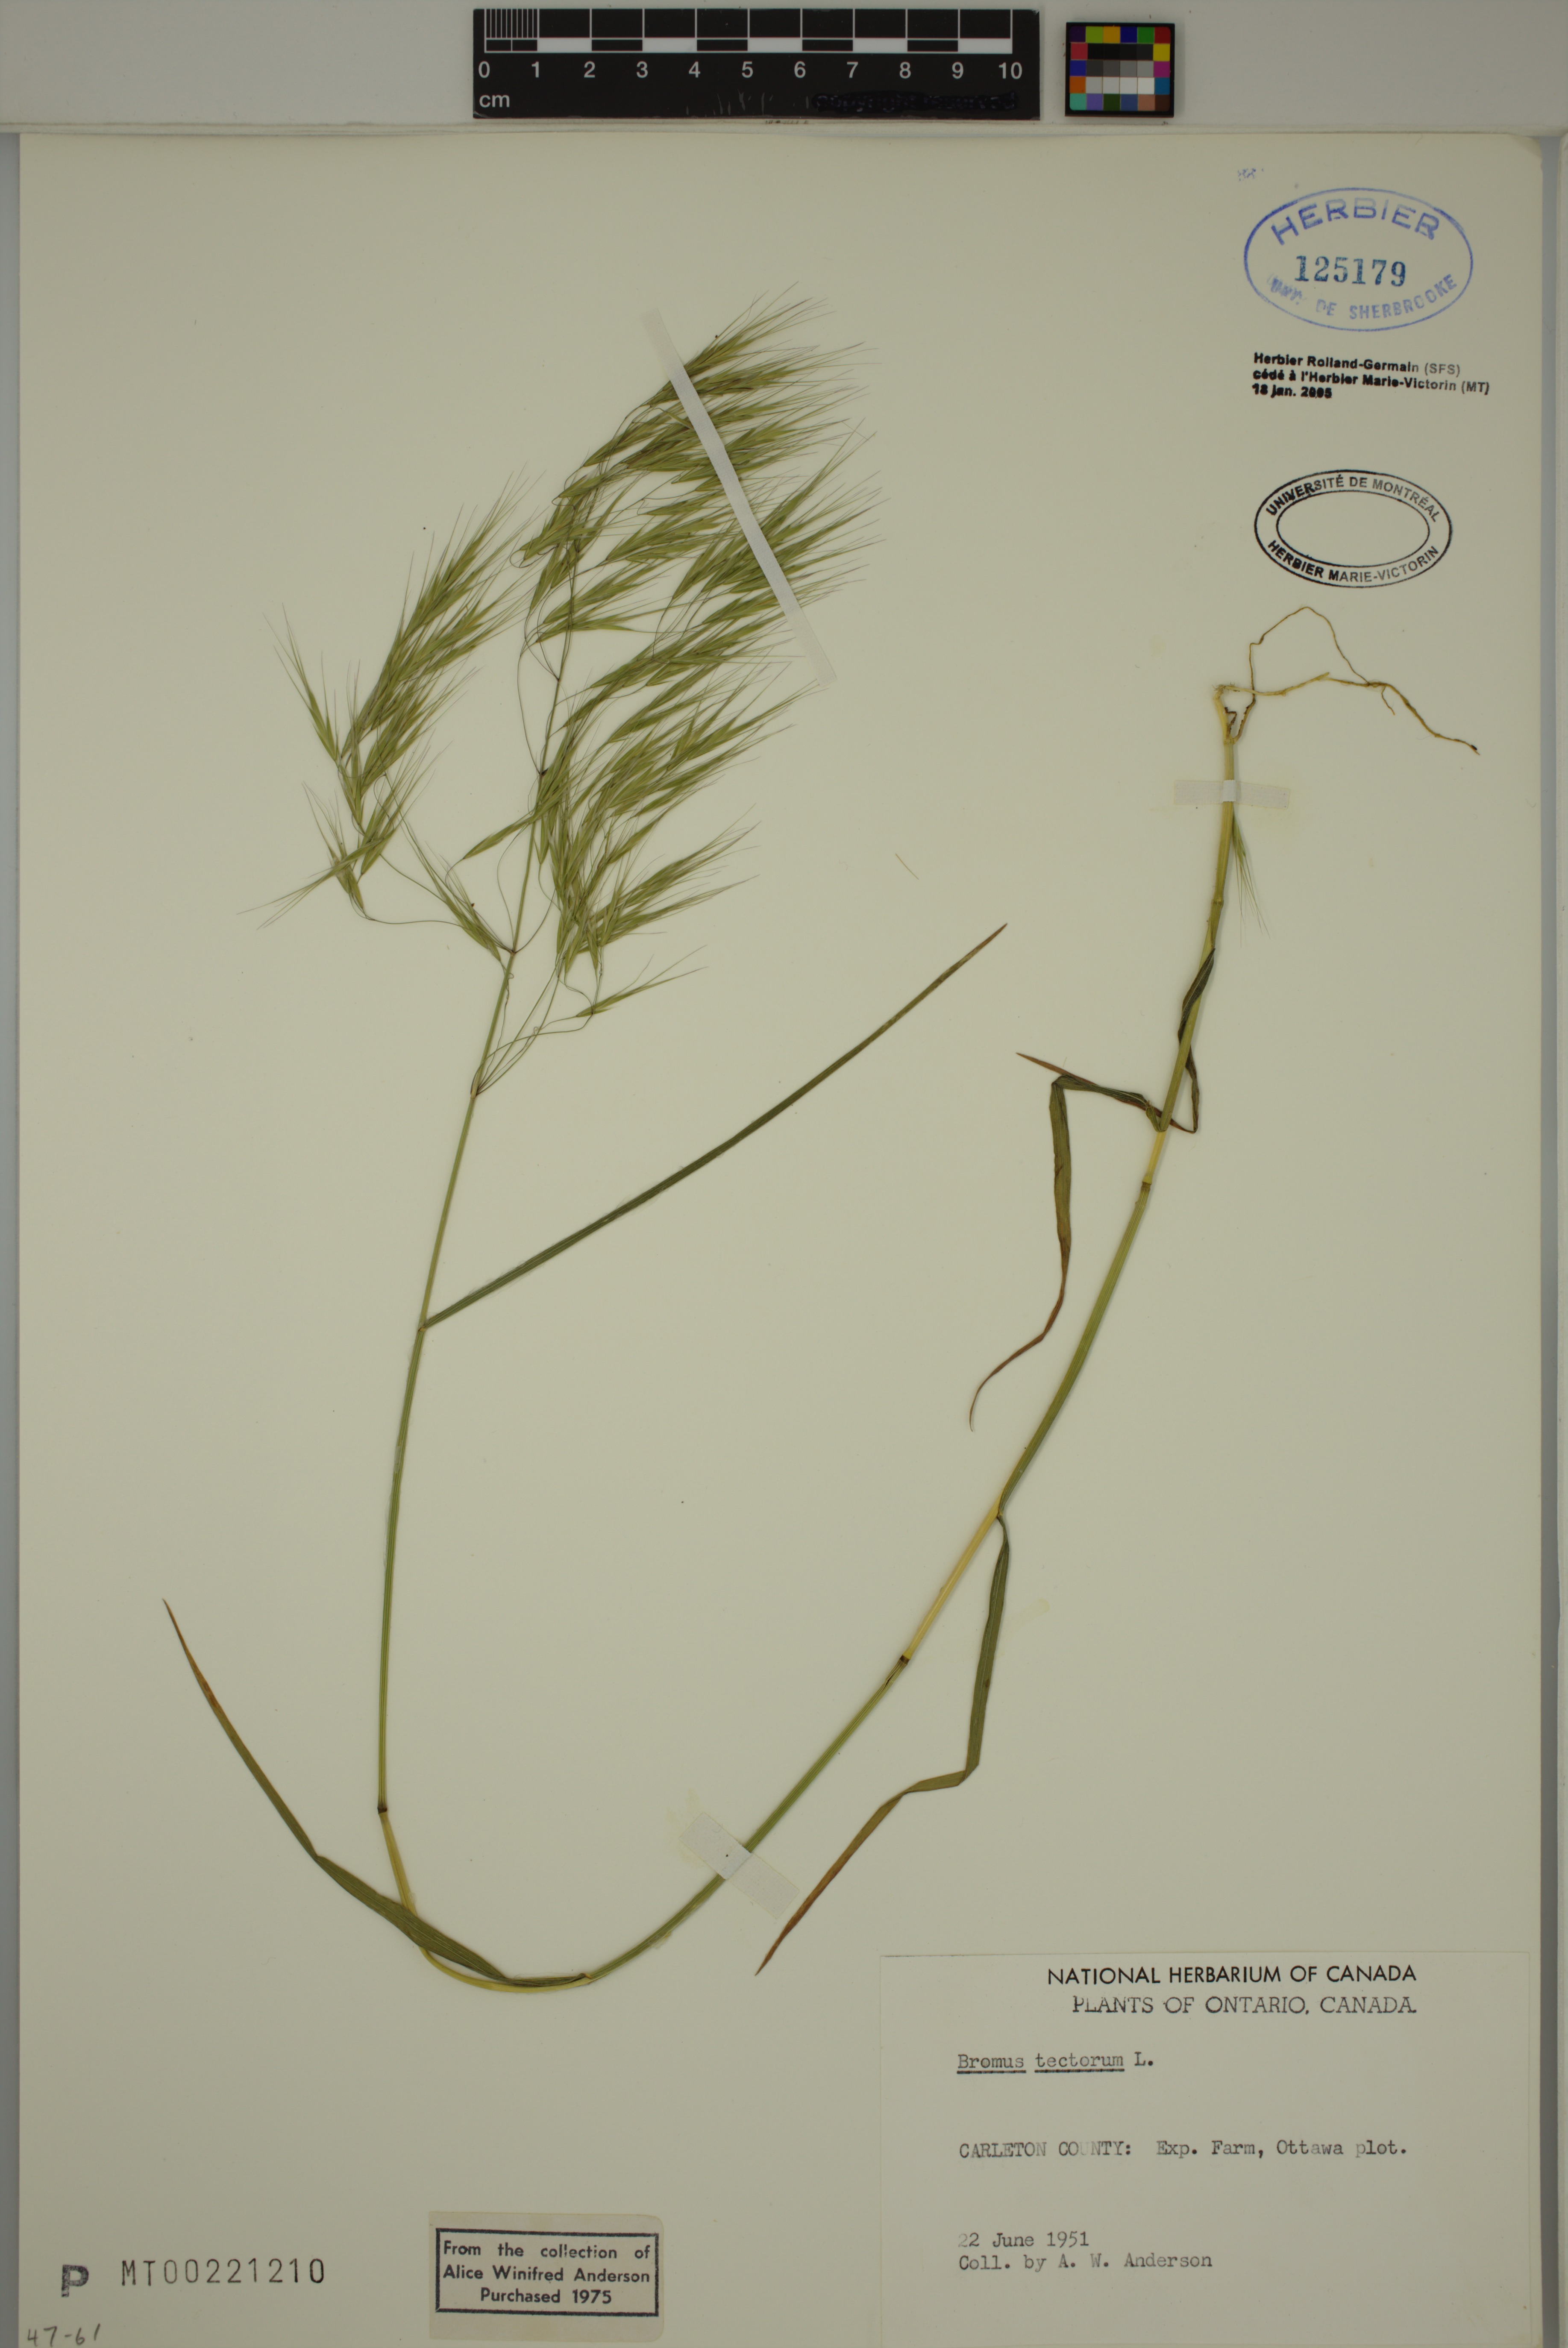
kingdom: Plantae
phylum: Tracheophyta
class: Liliopsida
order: Poales
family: Poaceae
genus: Bromus
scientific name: Bromus tectorum
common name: Cheatgrass
